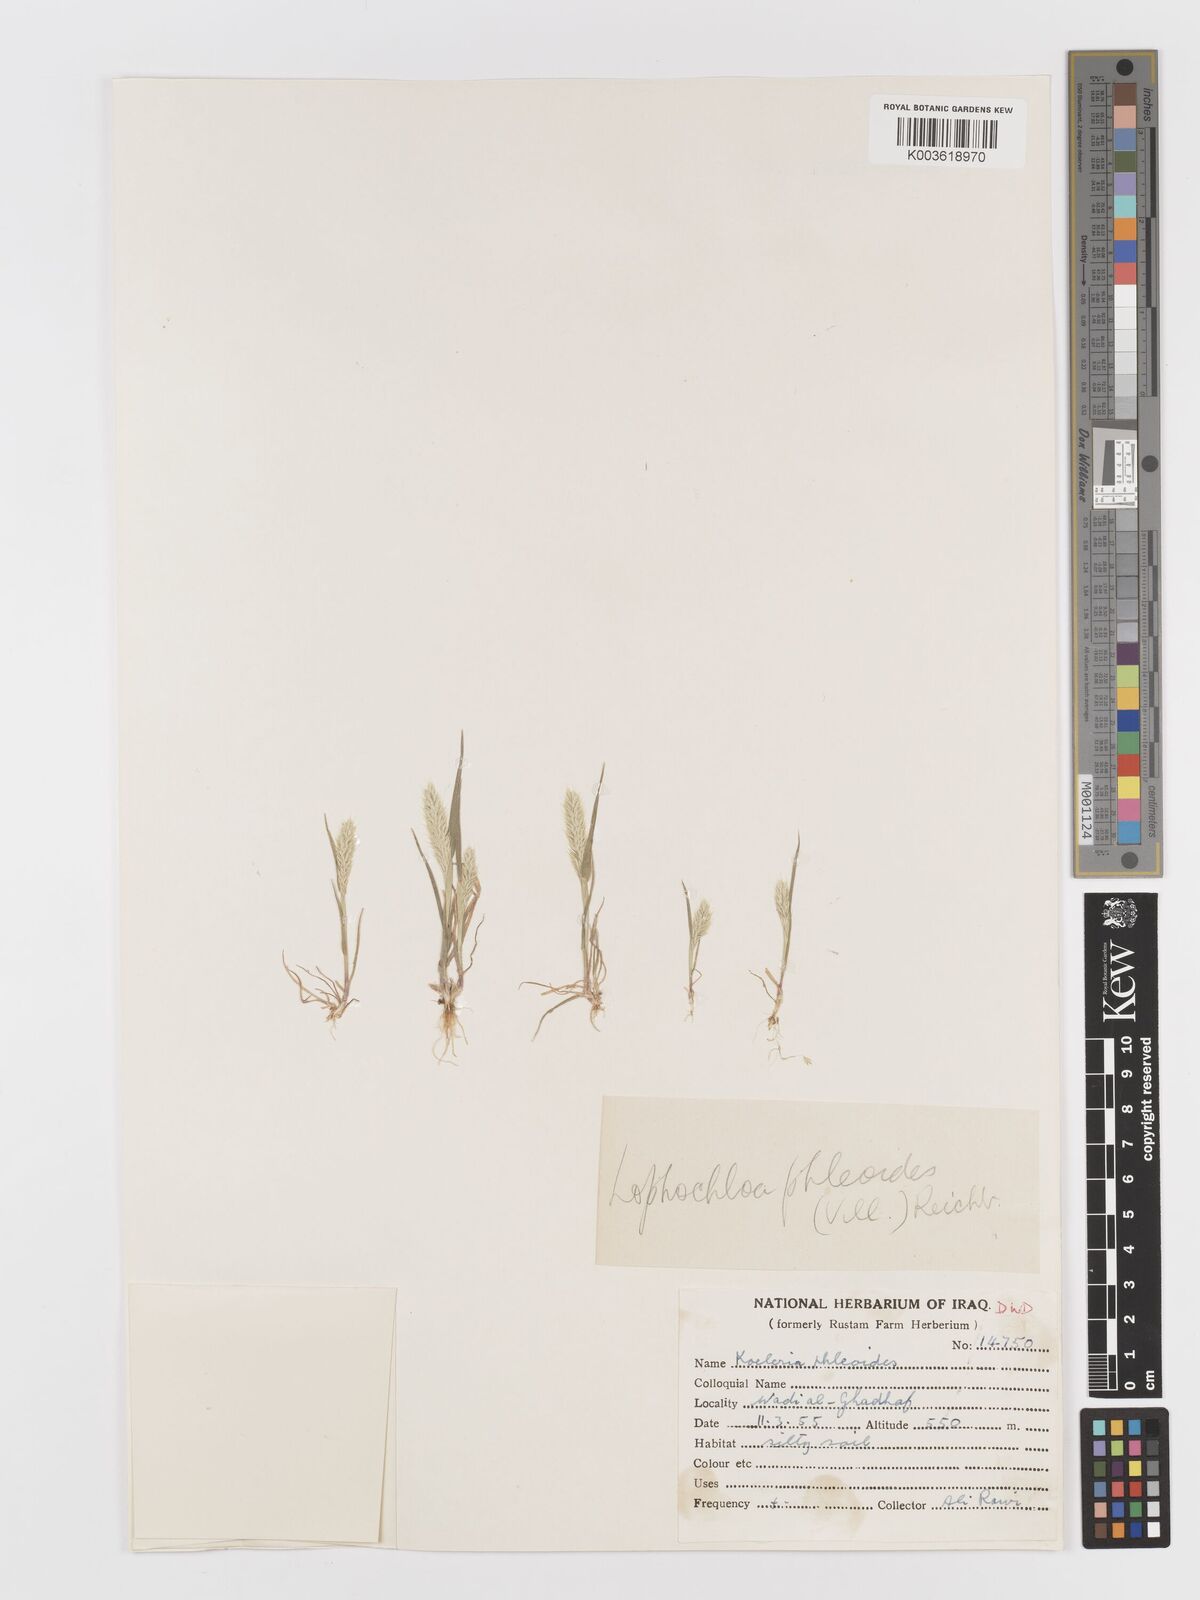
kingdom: Plantae
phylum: Tracheophyta
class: Liliopsida
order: Poales
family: Poaceae
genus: Rostraria
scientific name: Rostraria cristata
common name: Mediterranean hair-grass
